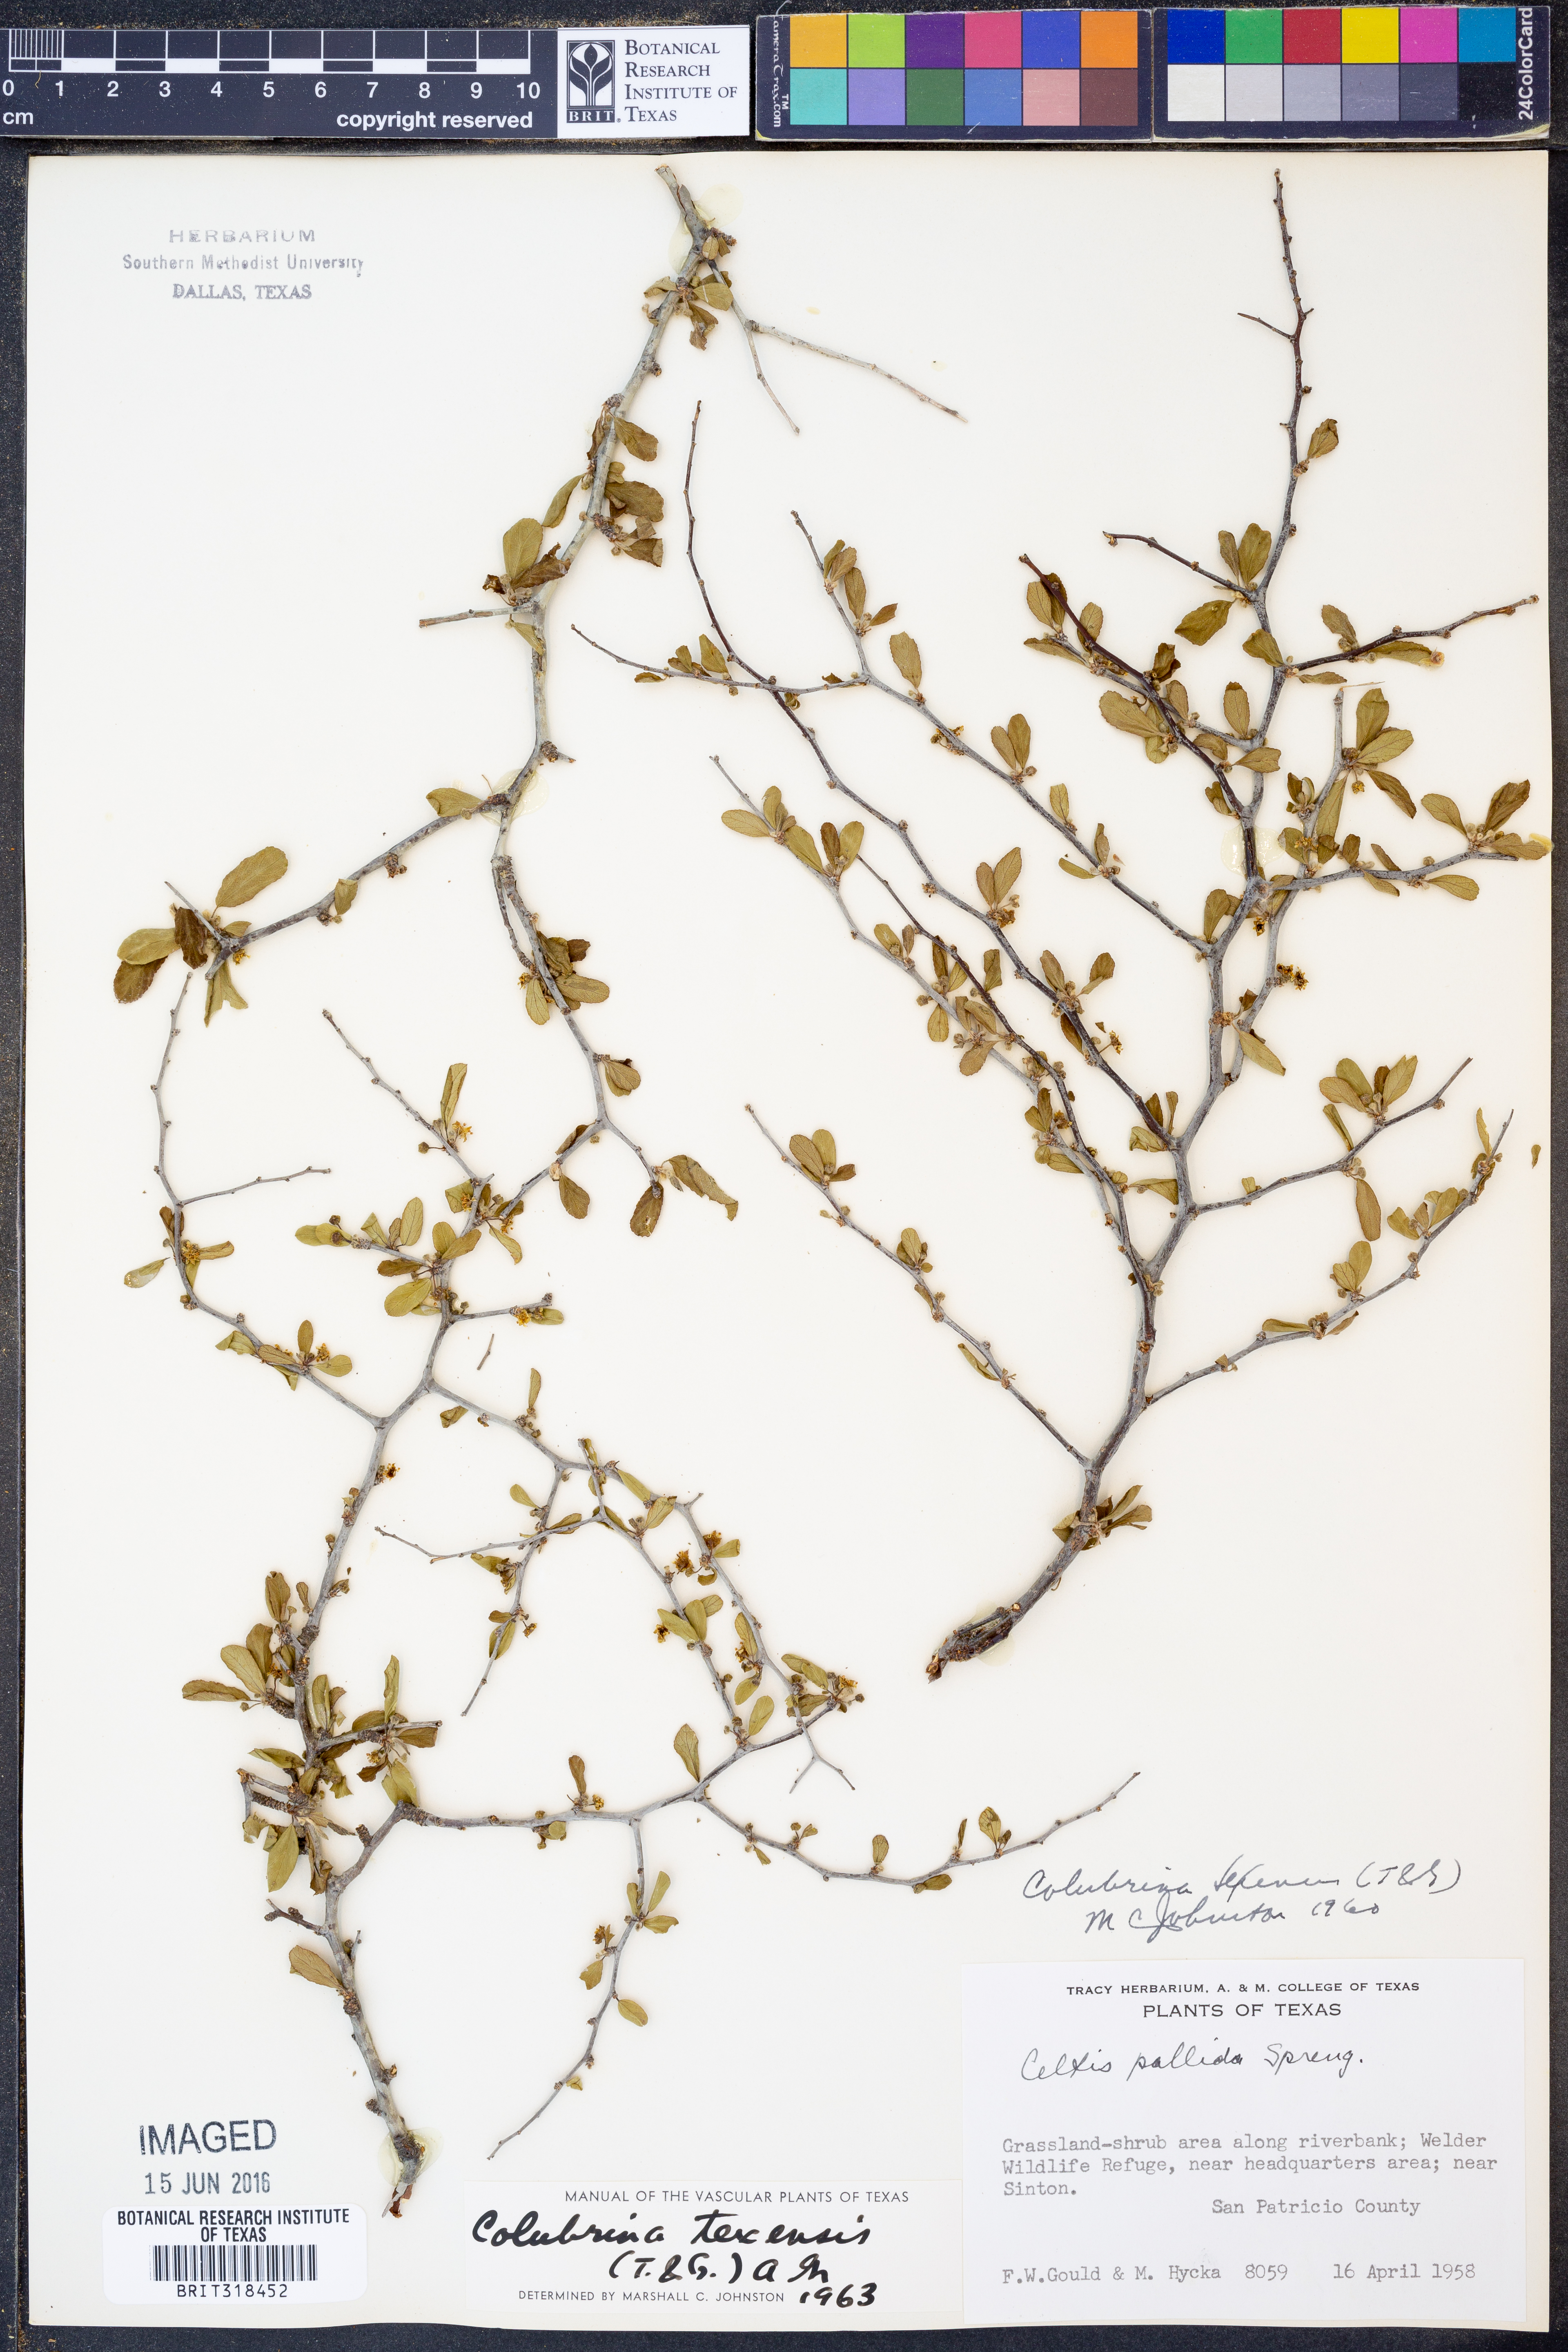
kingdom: Plantae
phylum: Tracheophyta
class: Magnoliopsida
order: Rosales
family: Rhamnaceae
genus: Colubrina
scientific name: Colubrina texensis
